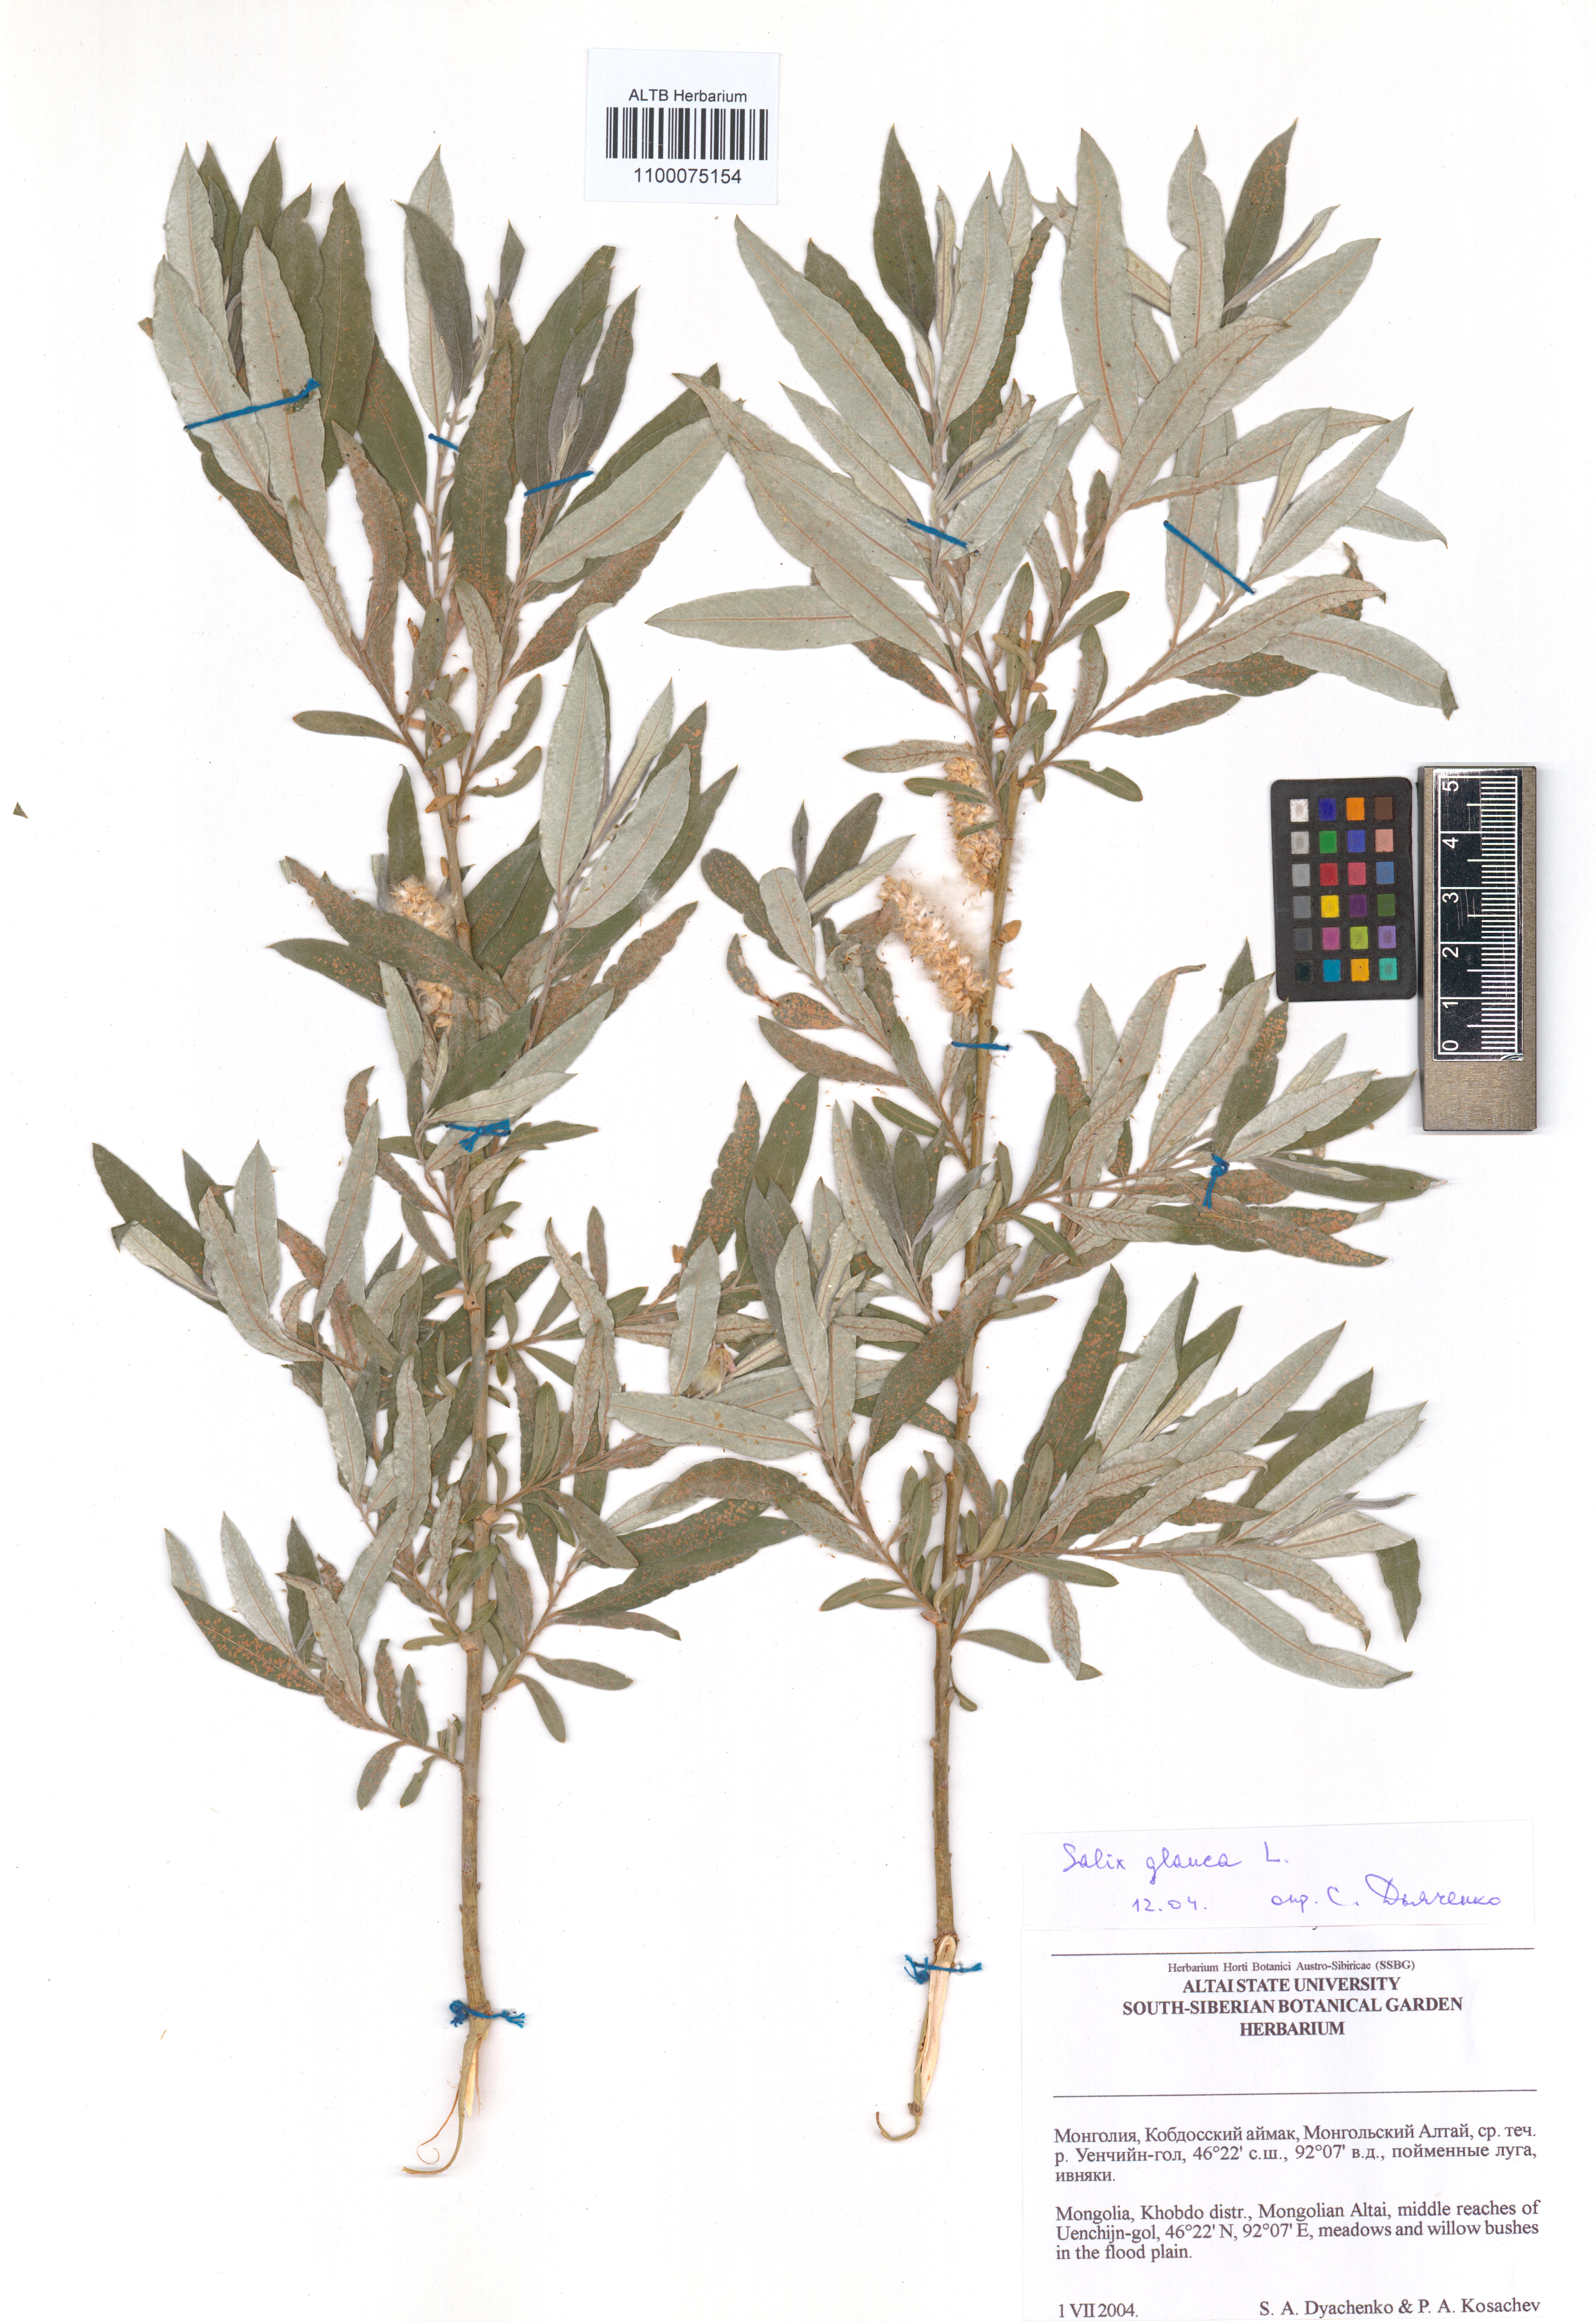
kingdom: Plantae
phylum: Tracheophyta
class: Magnoliopsida
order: Malpighiales
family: Salicaceae
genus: Salix
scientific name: Salix glauca
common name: Glaucous willow
